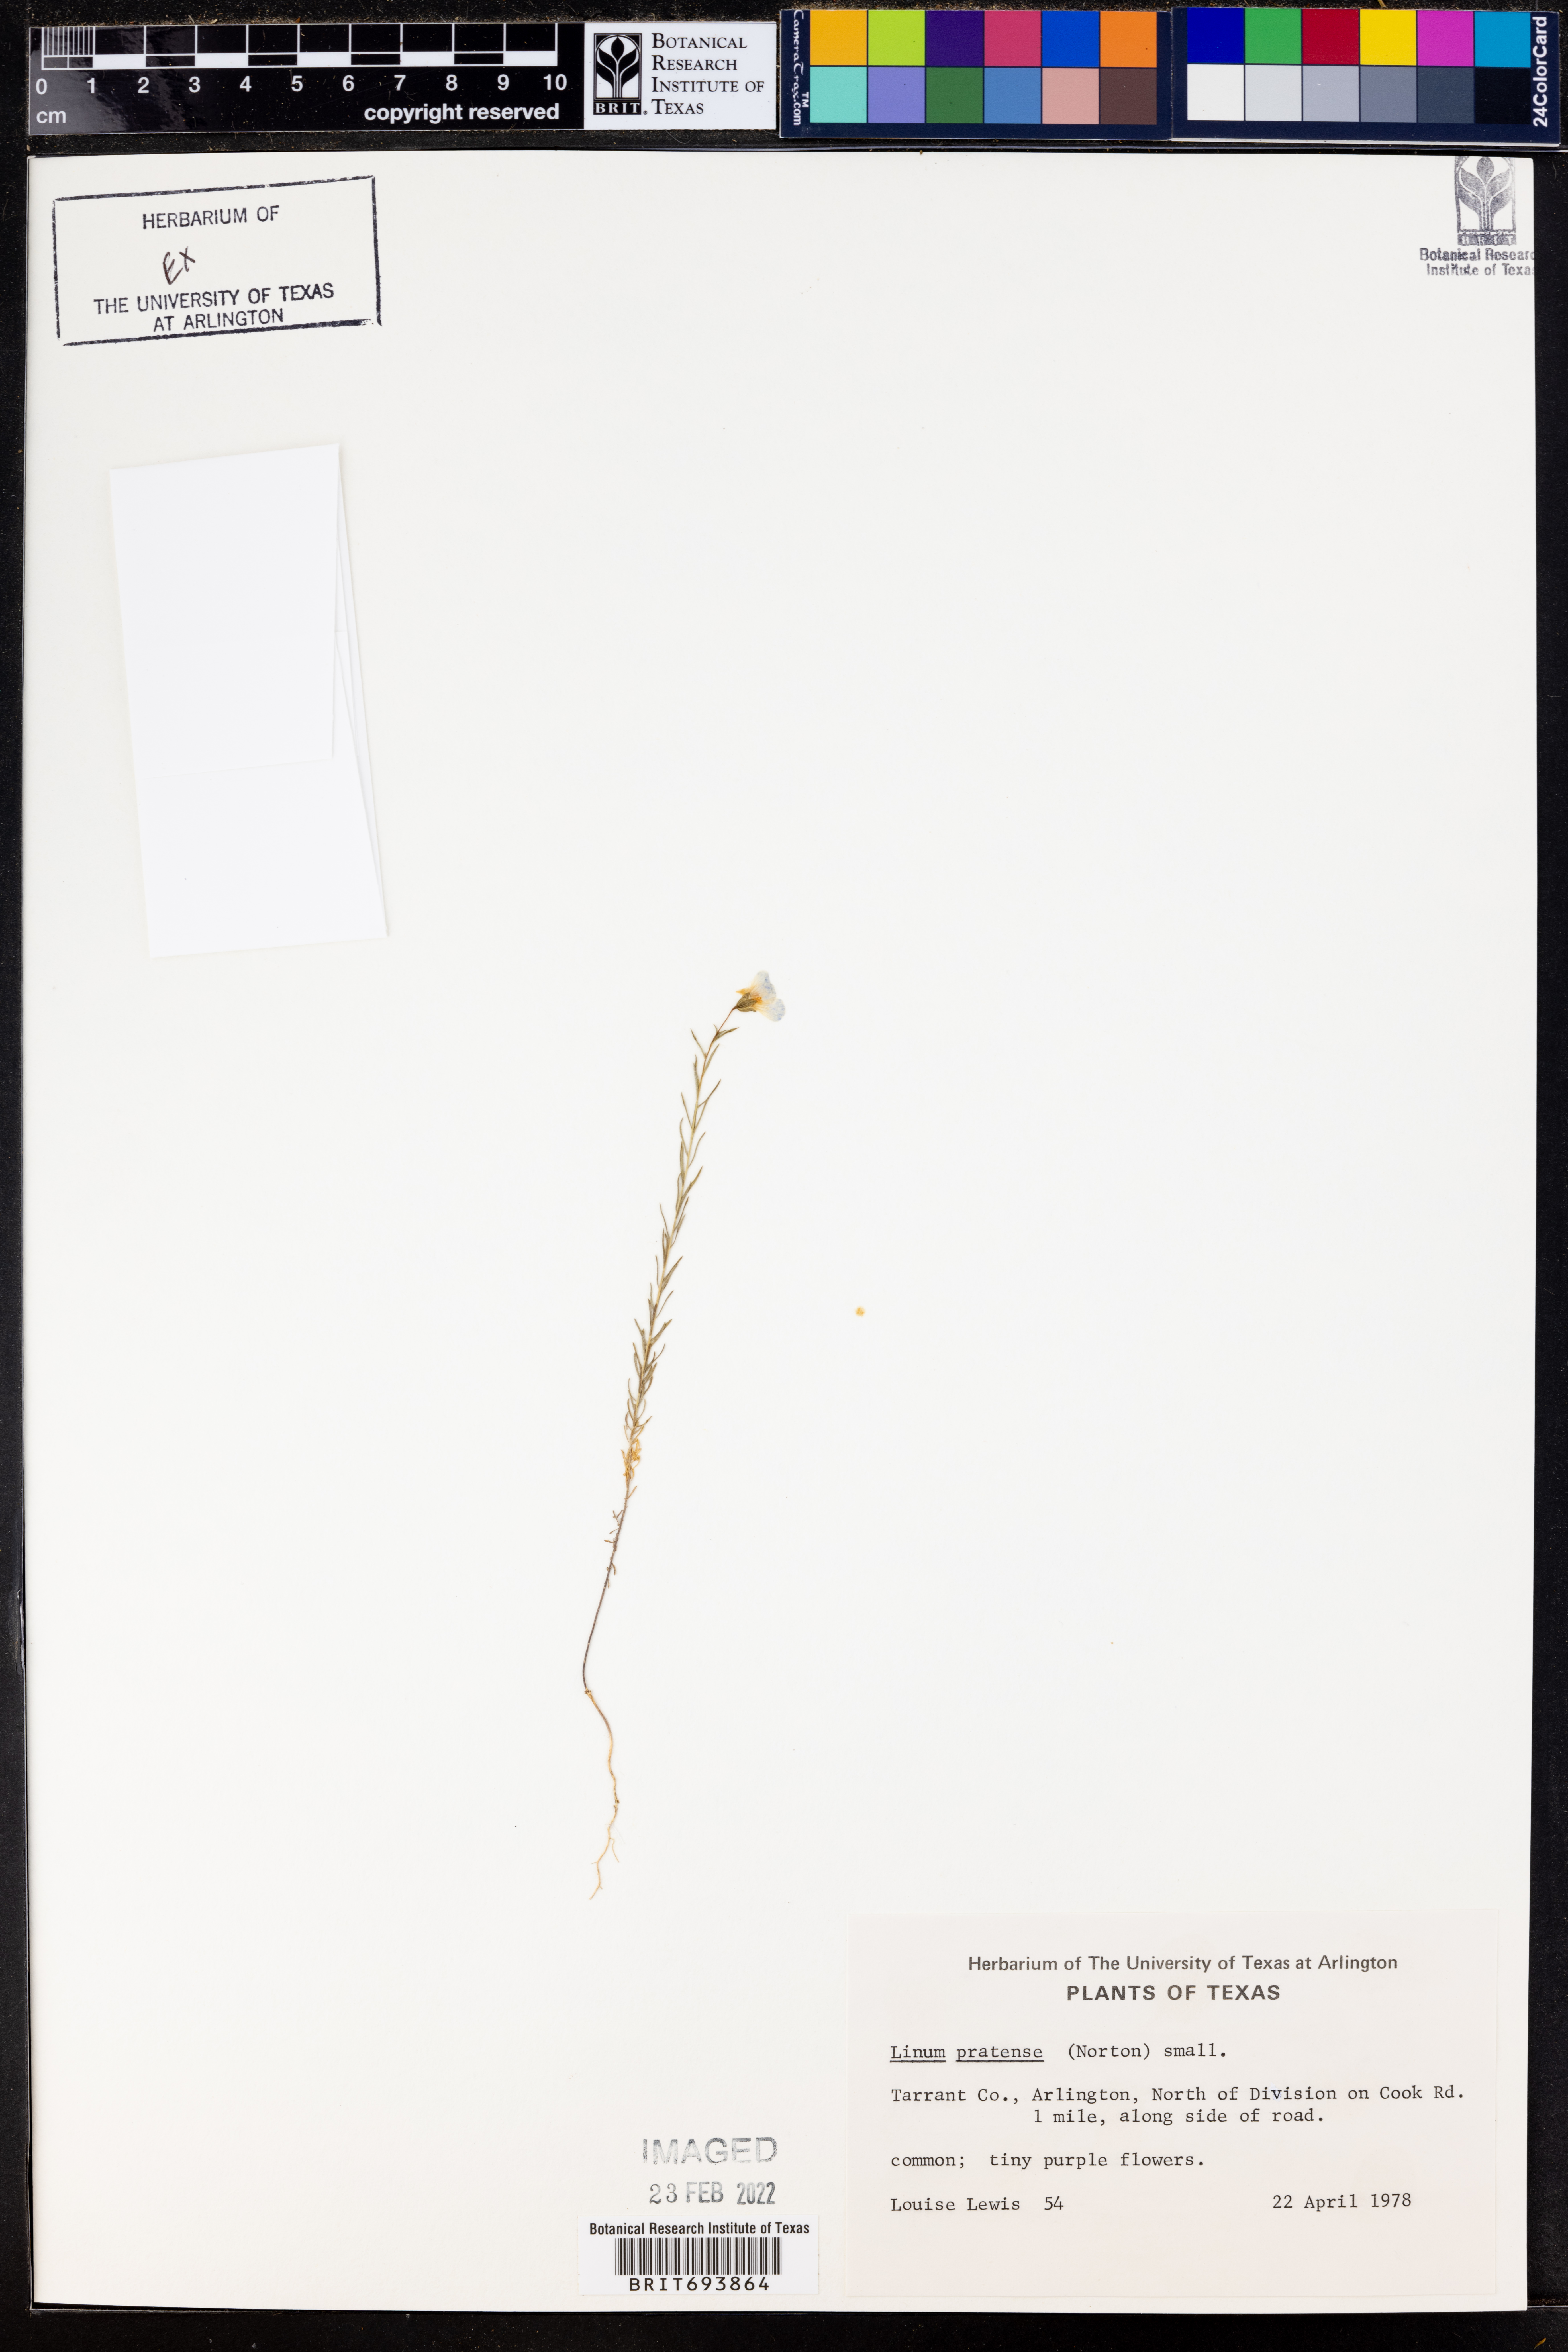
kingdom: Plantae
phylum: Tracheophyta
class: Magnoliopsida
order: Malpighiales
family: Linaceae
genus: Linum
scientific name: Linum pratense
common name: Norton's flax
